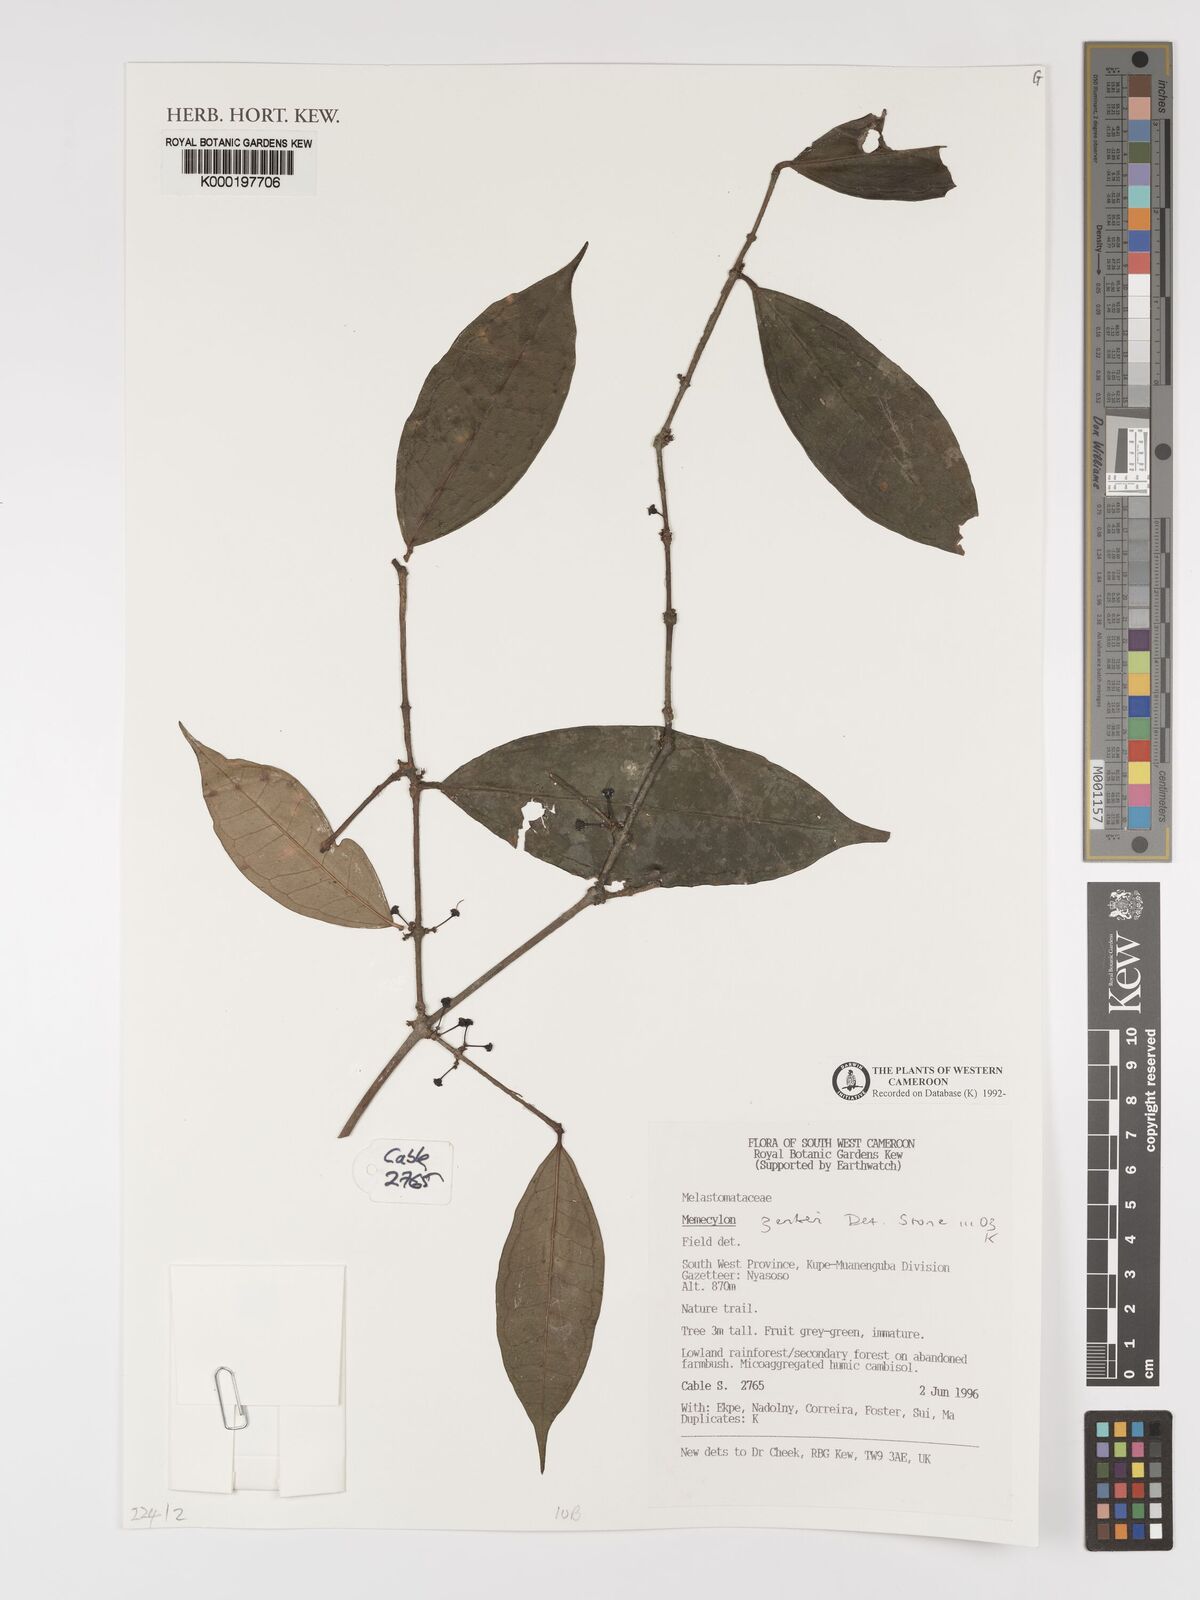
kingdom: Plantae
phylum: Tracheophyta
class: Magnoliopsida
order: Myrtales
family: Melastomataceae
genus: Memecylon
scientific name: Memecylon zenkeri
